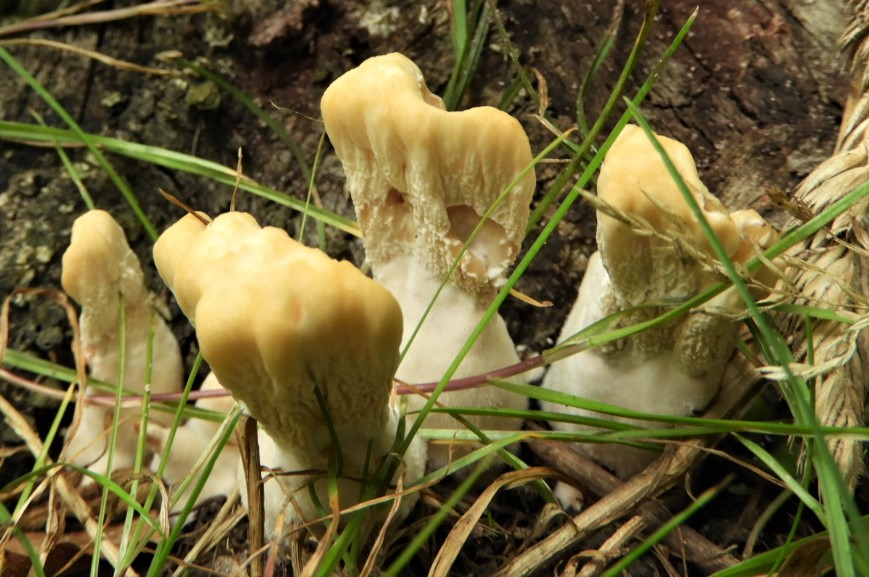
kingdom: Fungi
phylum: Basidiomycota
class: Agaricomycetes
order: Polyporales
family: Meripilaceae
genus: Meripilus
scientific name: Meripilus giganteus
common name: kæmpeporesvamp
